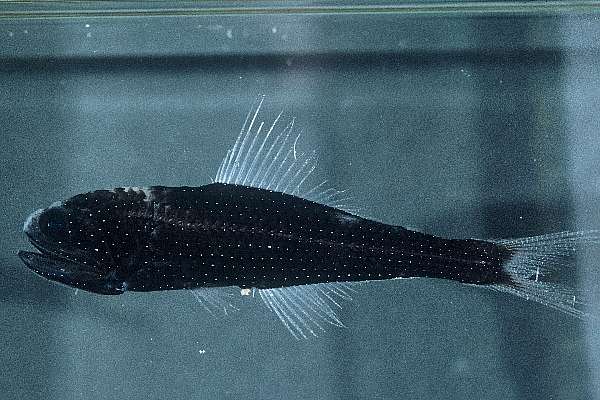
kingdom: Animalia
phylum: Chordata
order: Myctophiformes
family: Myctophidae
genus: Scopelopsis
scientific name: Scopelopsis multipunctatus
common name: Lanternfish
